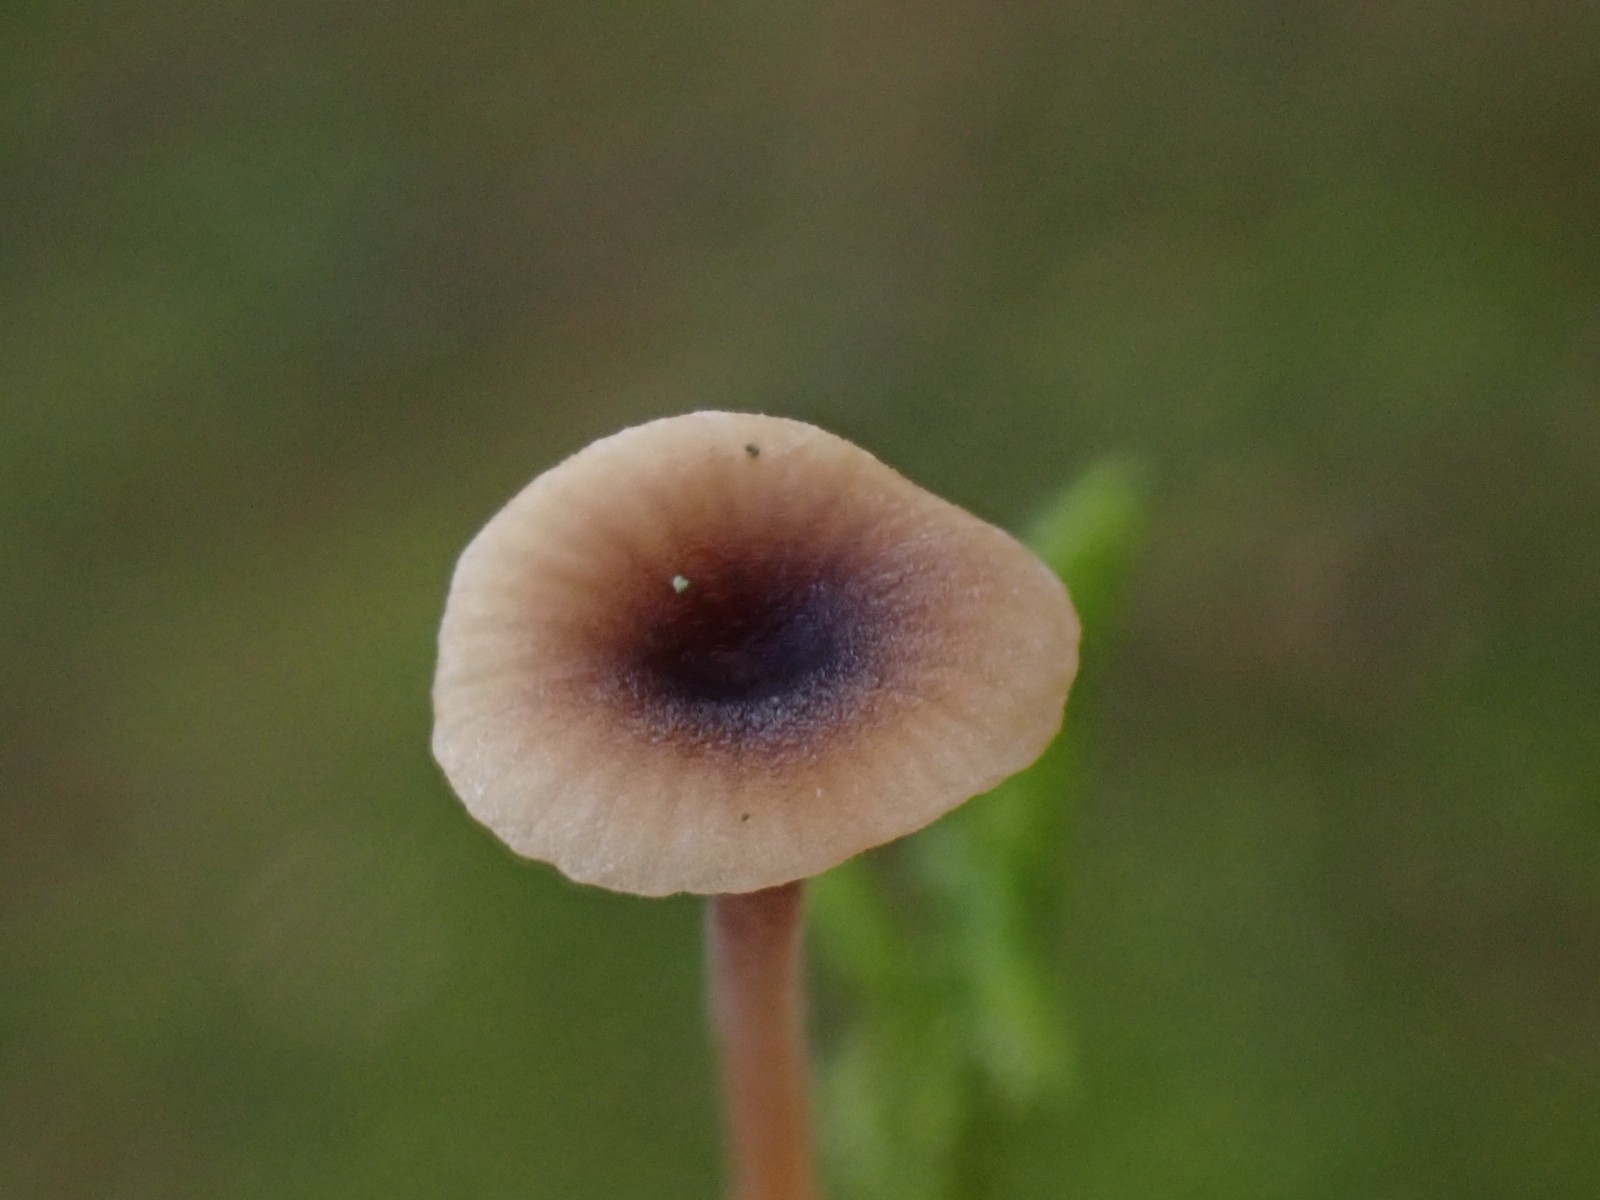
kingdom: Fungi
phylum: Basidiomycota
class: Agaricomycetes
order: Hymenochaetales
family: Rickenellaceae
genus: Rickenella
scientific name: Rickenella swartzii
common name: finstokket mosnavlehat
